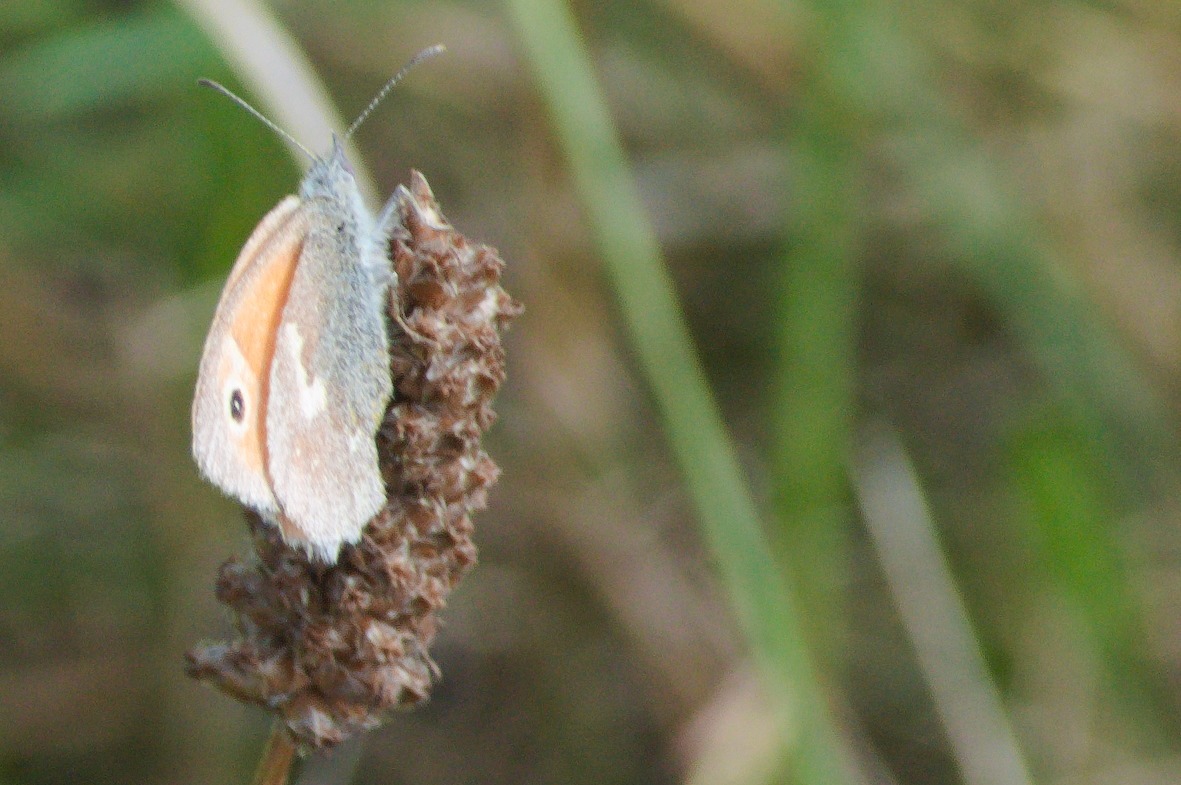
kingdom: Animalia
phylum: Arthropoda
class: Insecta
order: Lepidoptera
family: Nymphalidae
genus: Coenonympha
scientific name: Coenonympha pamphilus
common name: Okkergul randøje
